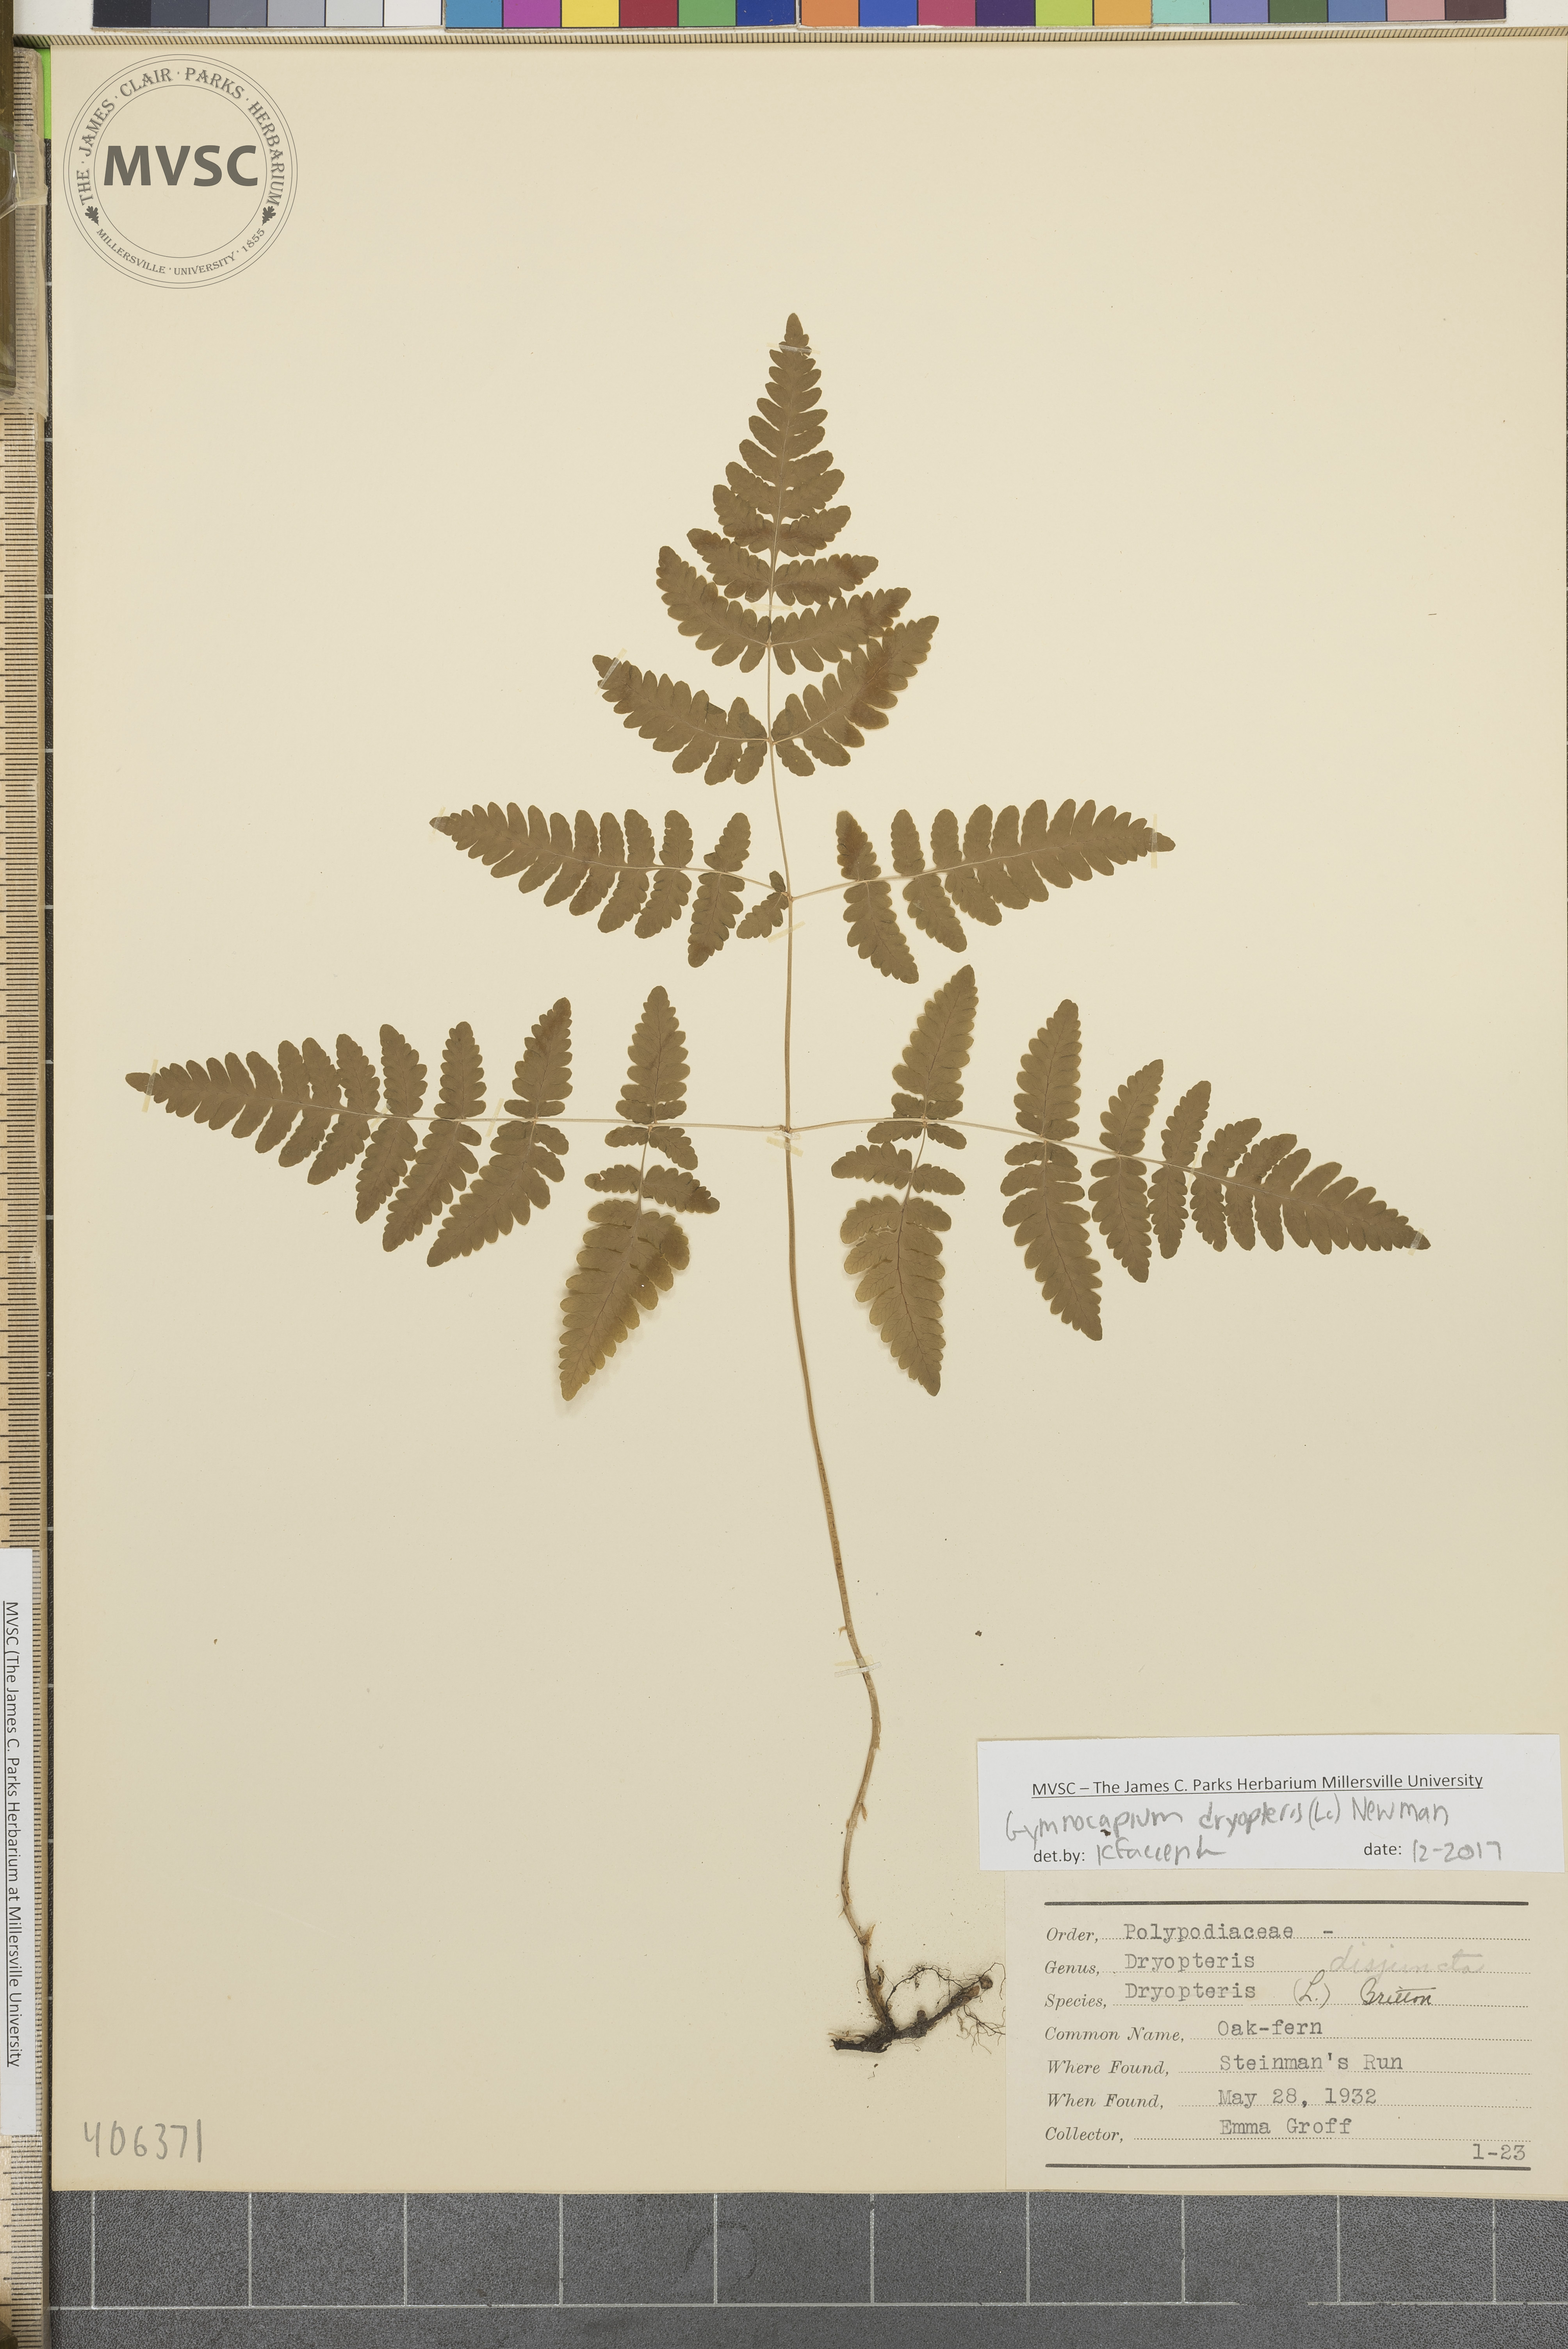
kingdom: Plantae
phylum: Tracheophyta
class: Polypodiopsida
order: Polypodiales
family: Cystopteridaceae
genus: Gymnocarpium
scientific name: Gymnocarpium dryopteris
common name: Oak fern
